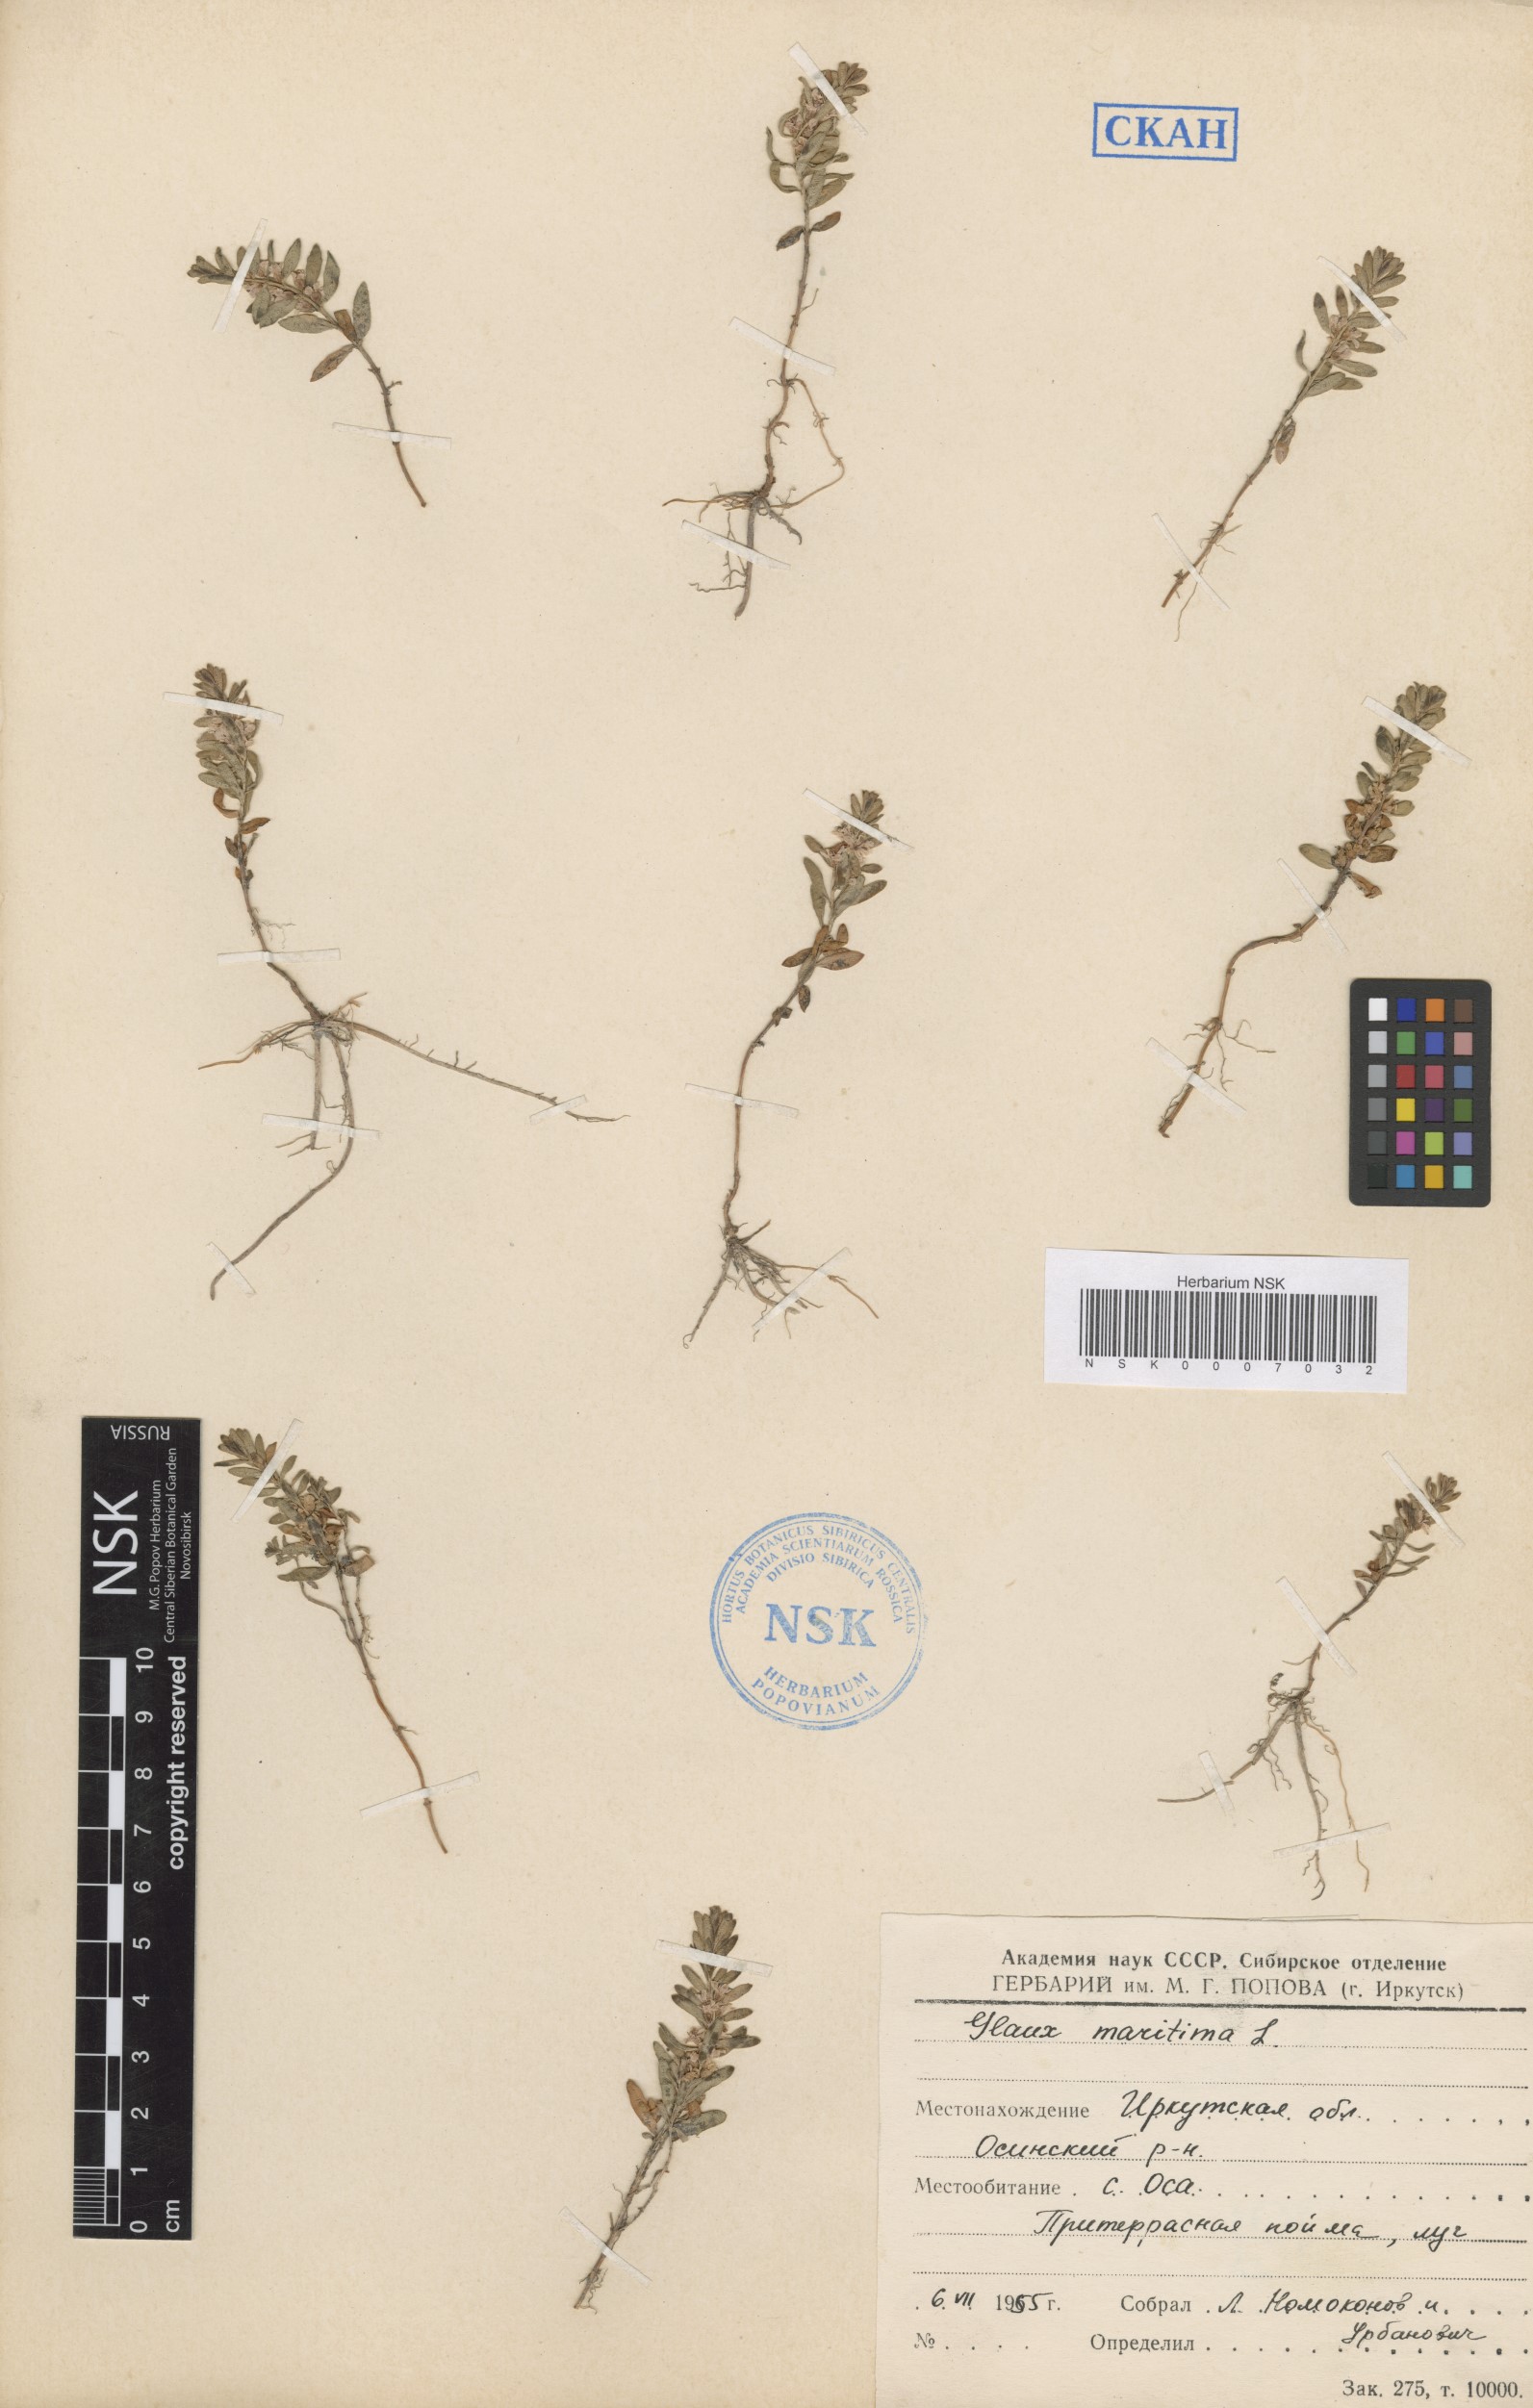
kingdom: Plantae
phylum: Tracheophyta
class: Magnoliopsida
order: Ericales
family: Primulaceae
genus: Lysimachia
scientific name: Lysimachia maritima
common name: Sea milkwort
